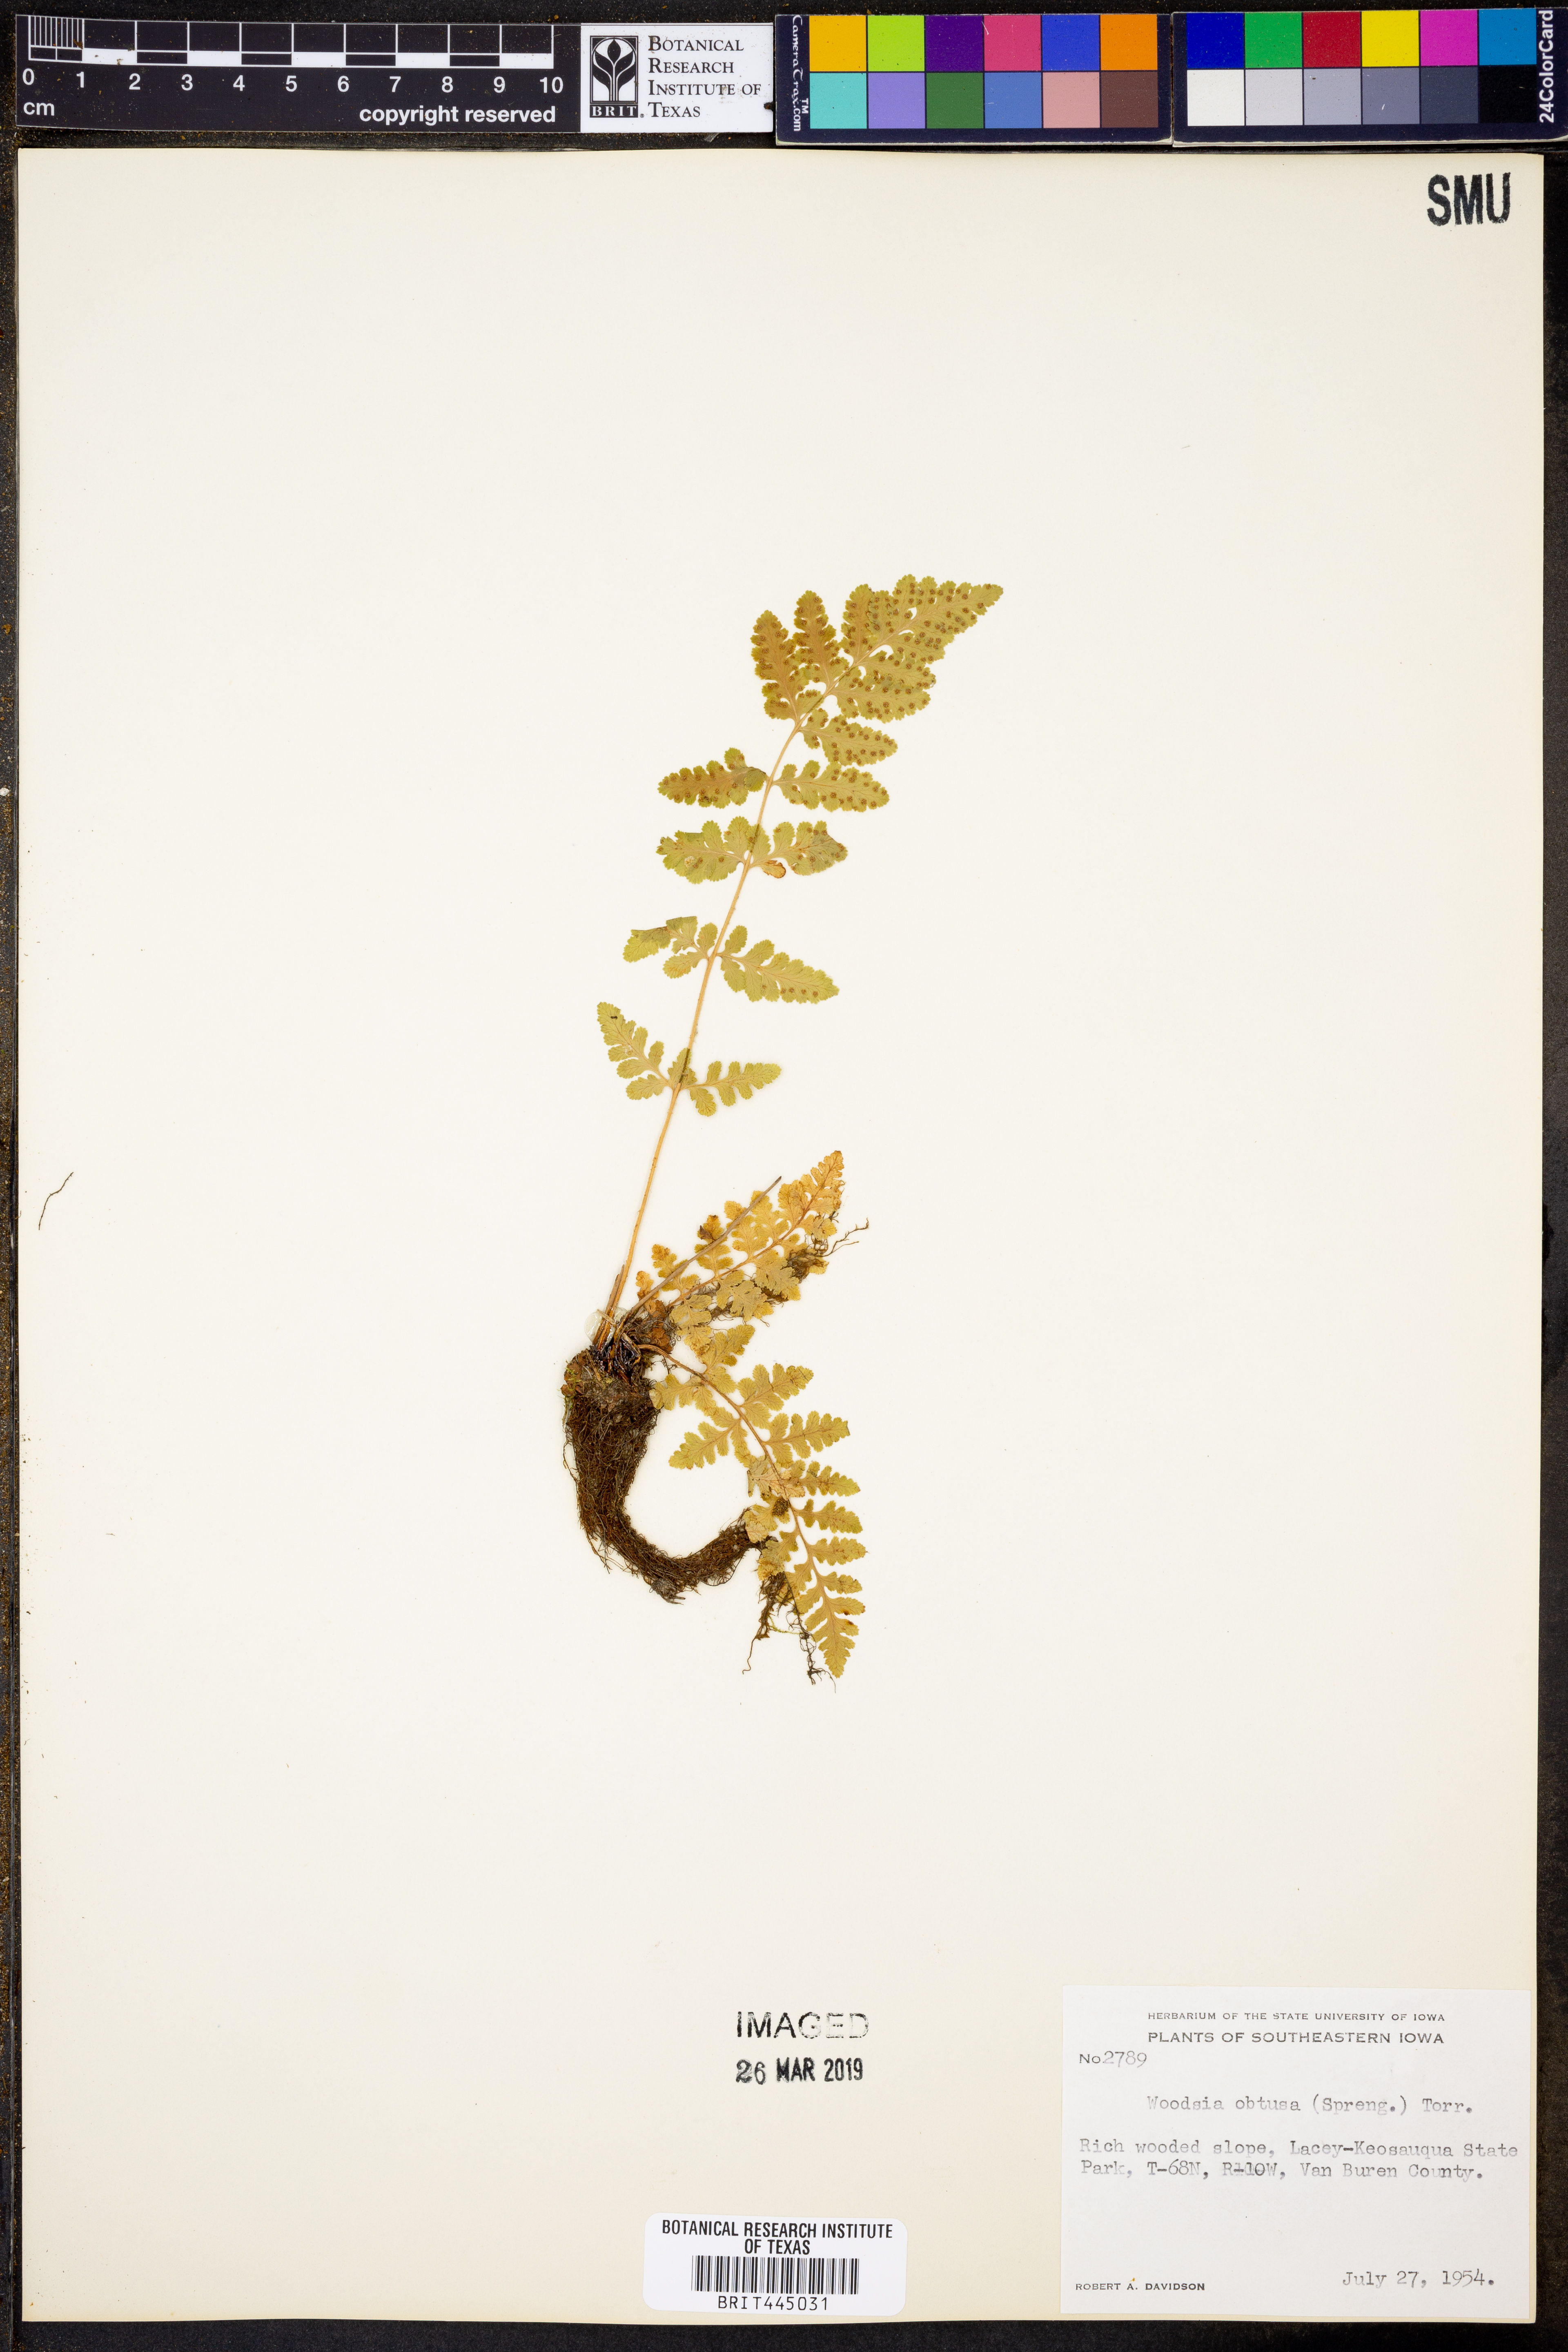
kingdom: Plantae
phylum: Tracheophyta
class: Polypodiopsida
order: Polypodiales
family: Woodsiaceae
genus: Physematium
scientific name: Physematium obtusum
